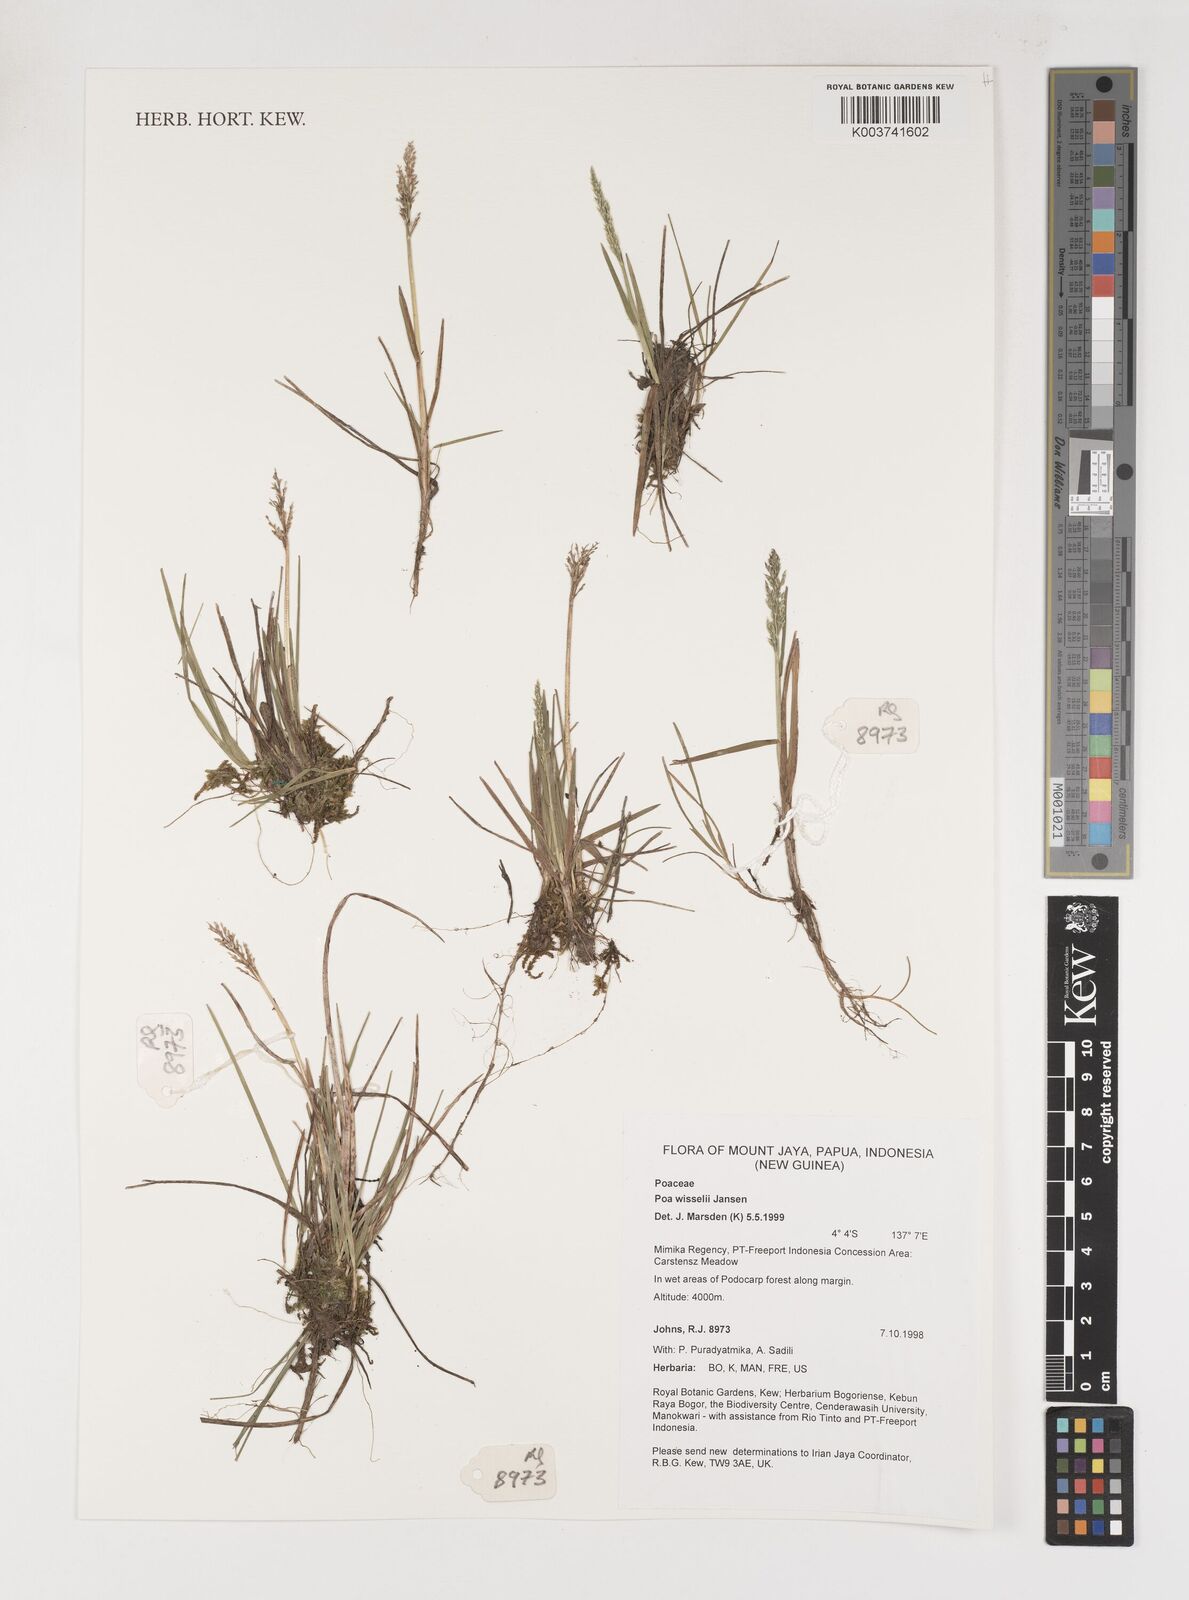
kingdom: Plantae
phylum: Tracheophyta
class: Liliopsida
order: Poales
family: Poaceae
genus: Poa
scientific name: Poa wisselii
